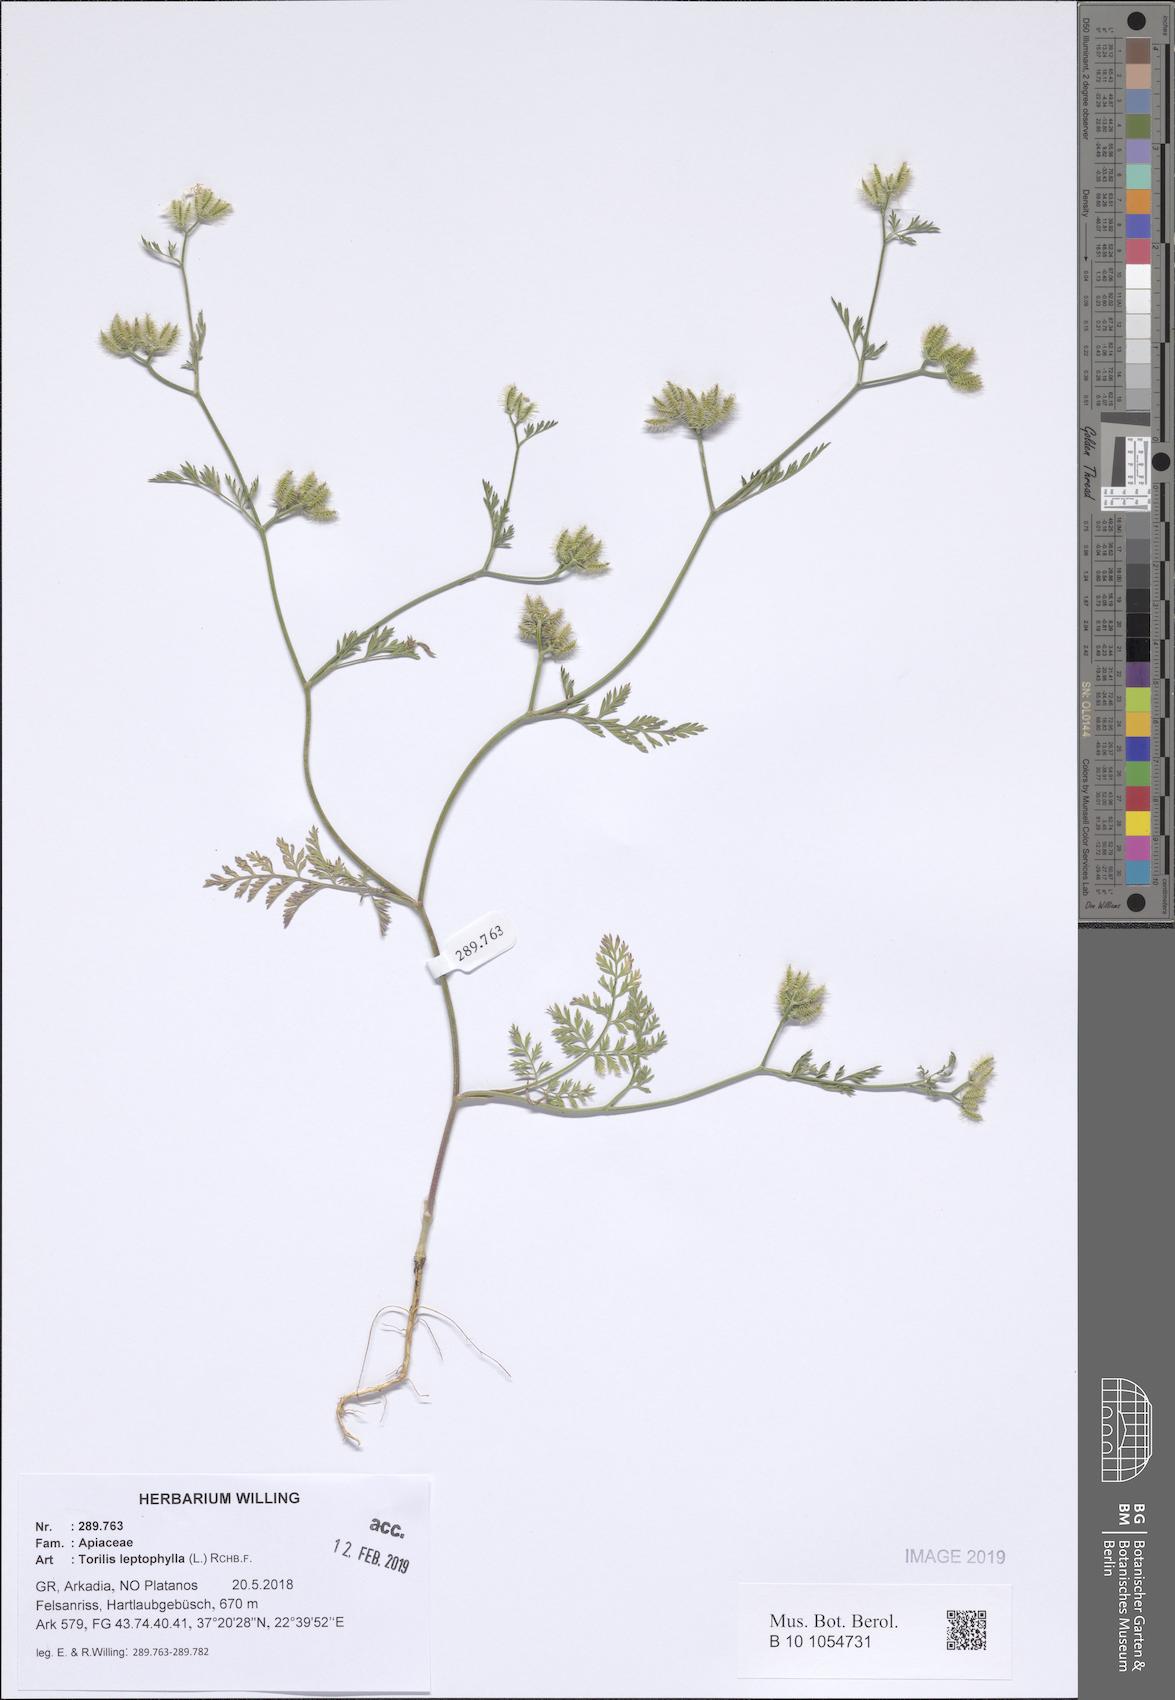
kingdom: Plantae
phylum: Tracheophyta
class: Magnoliopsida
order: Apiales
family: Apiaceae
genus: Torilis
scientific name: Torilis leptophylla
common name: Bristlefruit hedgeparsley
